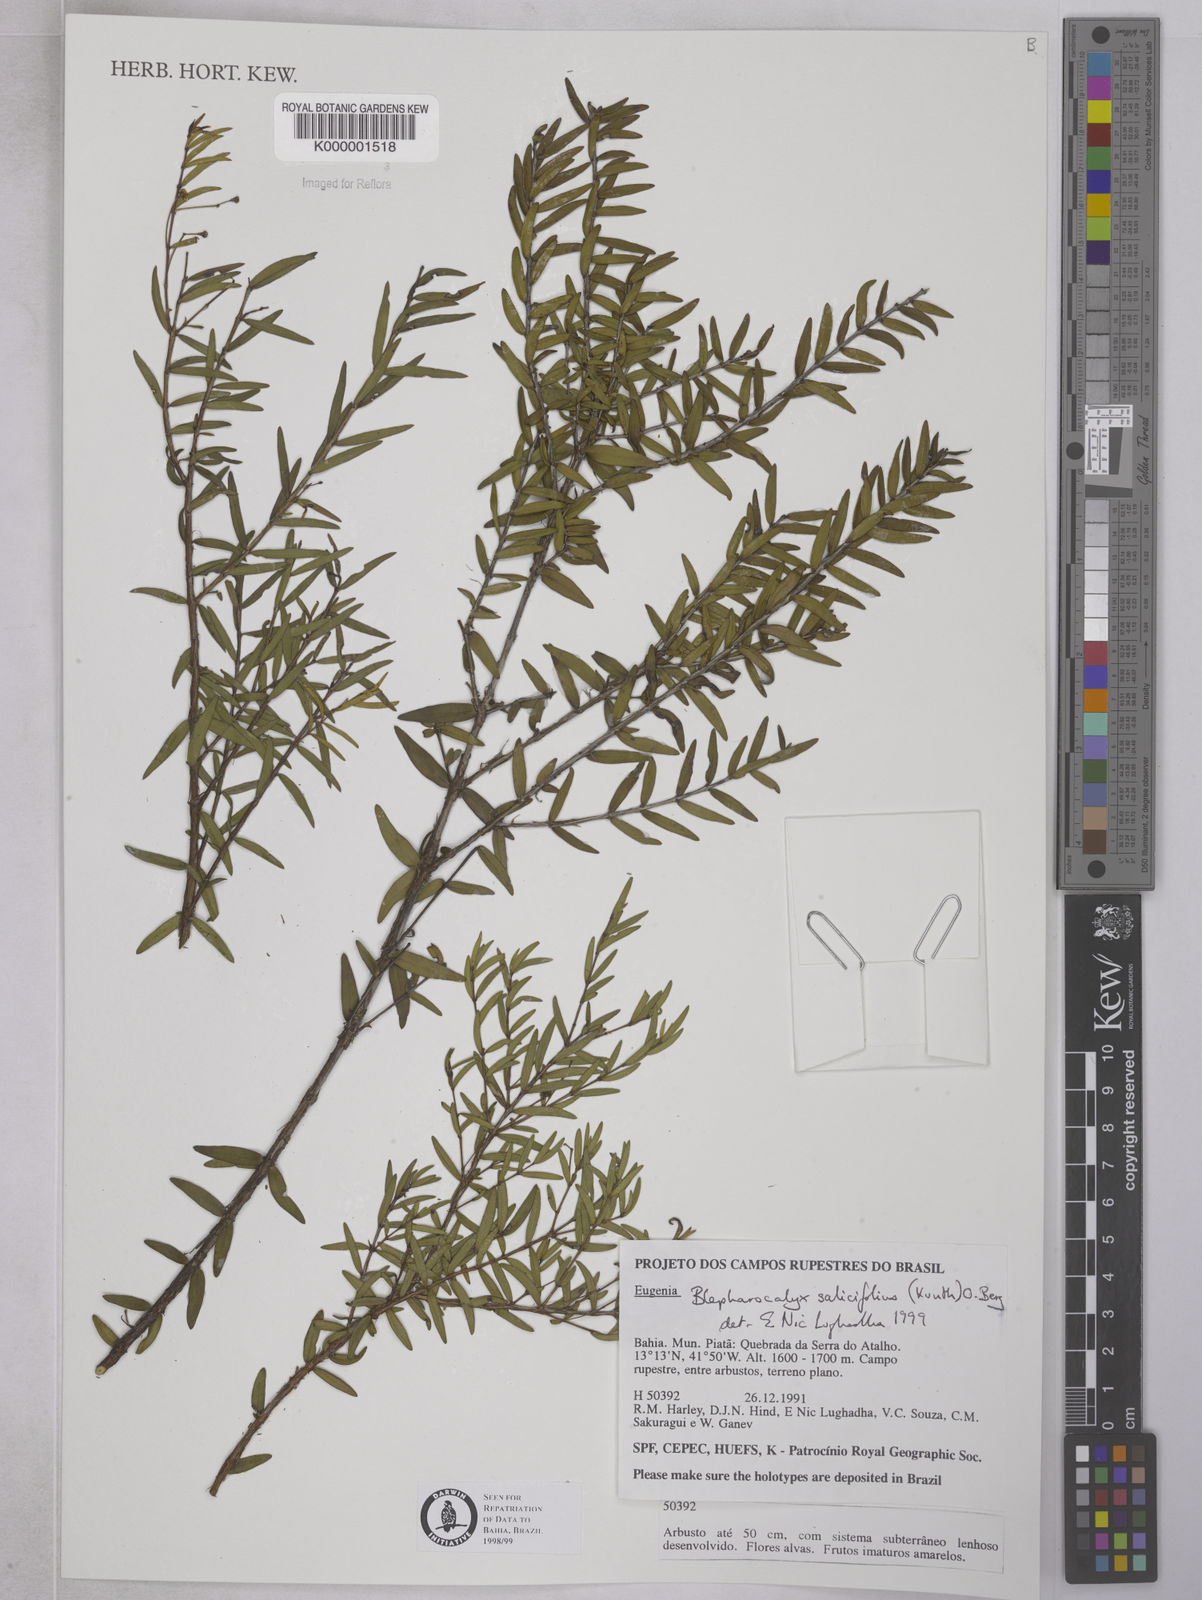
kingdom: Plantae
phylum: Tracheophyta
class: Magnoliopsida
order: Myrtales
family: Myrtaceae
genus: Blepharocalyx
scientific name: Blepharocalyx salicifolius
